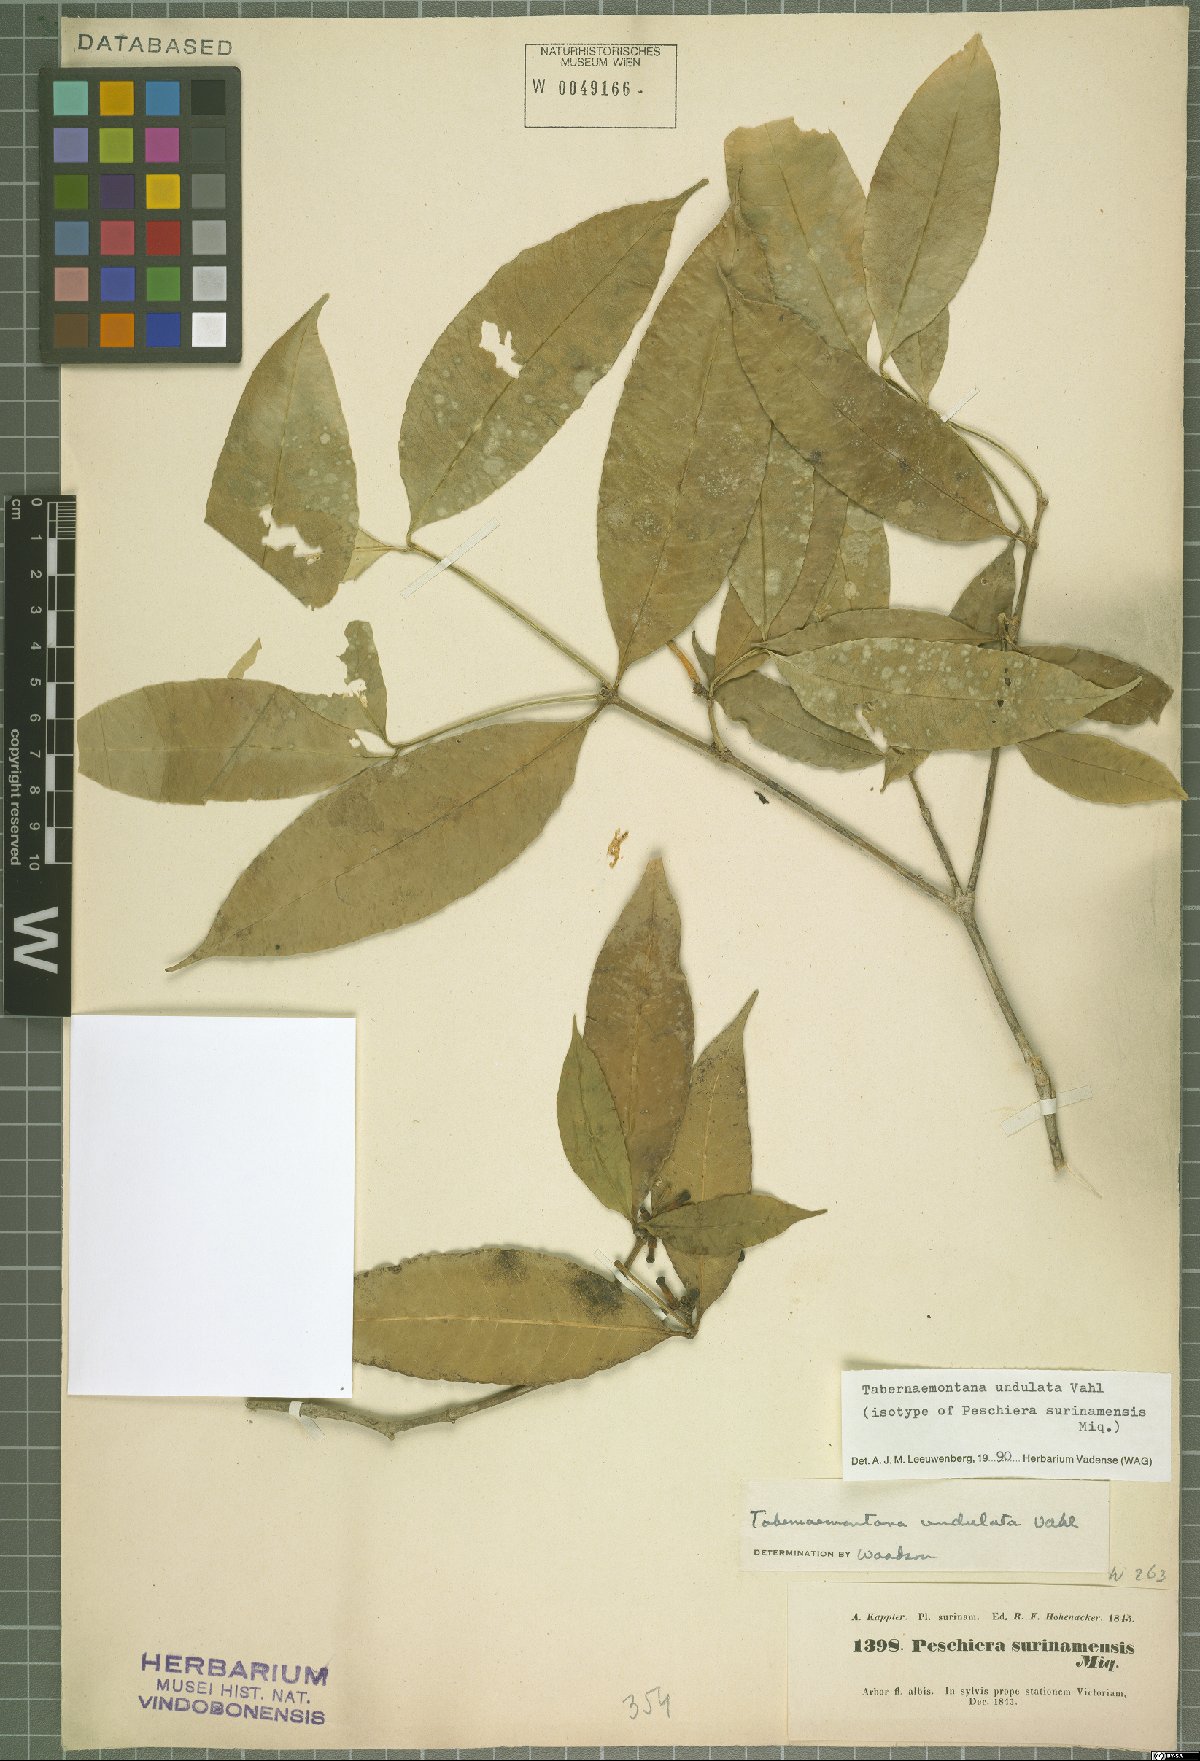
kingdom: Plantae
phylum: Tracheophyta
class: Magnoliopsida
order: Gentianales
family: Apocynaceae
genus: Tabernaemontana
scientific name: Tabernaemontana undulata
